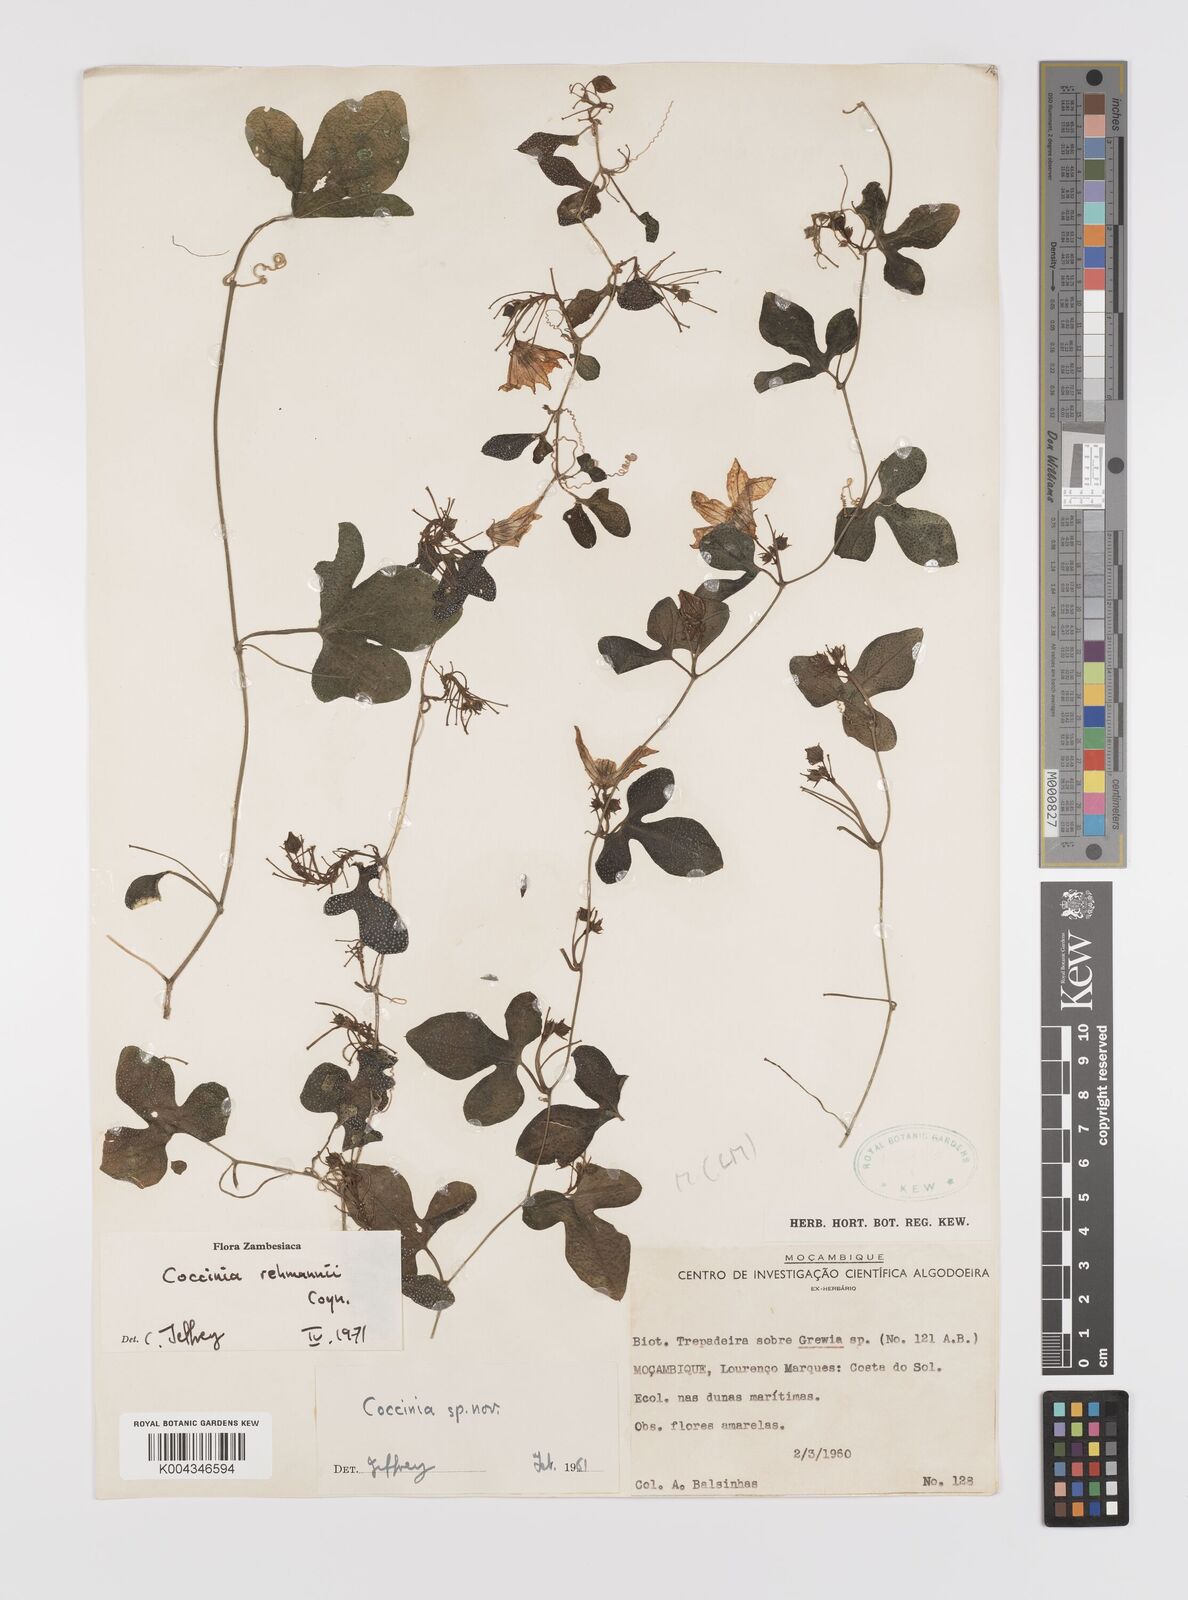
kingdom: Plantae
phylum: Tracheophyta
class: Magnoliopsida
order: Cucurbitales
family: Cucurbitaceae
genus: Coccinia
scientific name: Coccinia rehmannii
